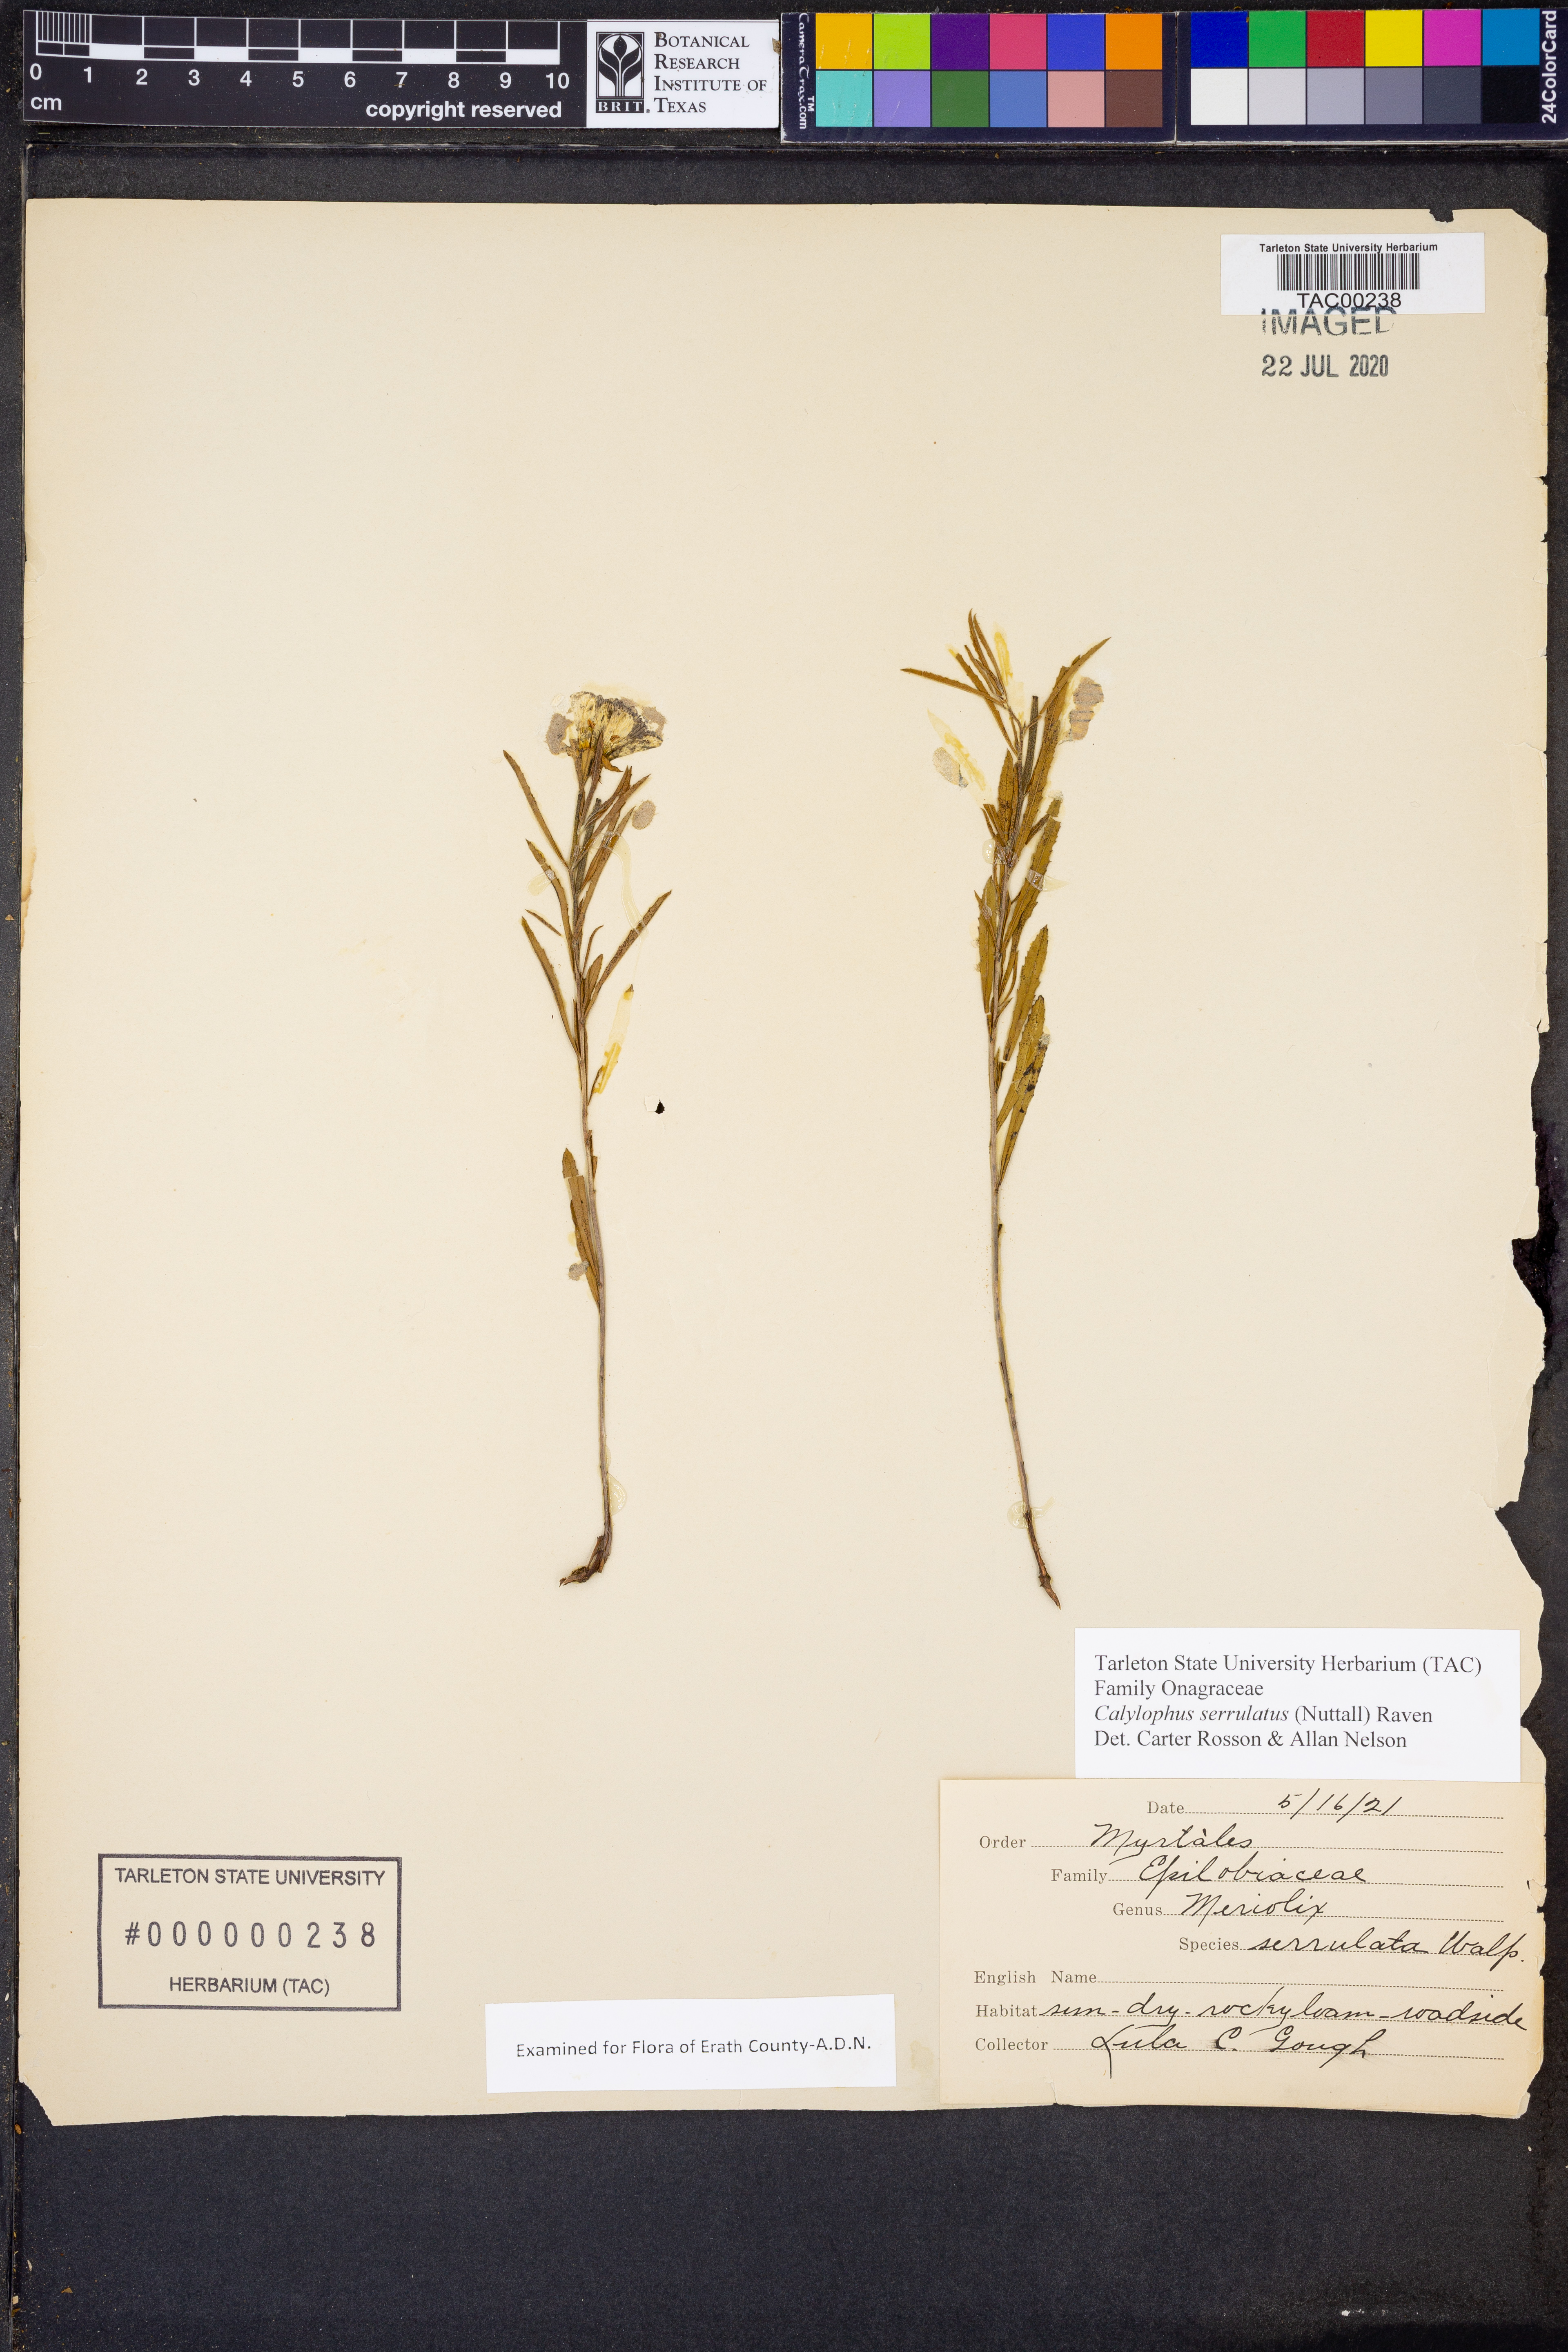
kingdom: Plantae
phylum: Tracheophyta
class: Magnoliopsida
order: Myrtales
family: Onagraceae
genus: Oenothera
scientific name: Oenothera serrulata
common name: Half-shrub calylophus
